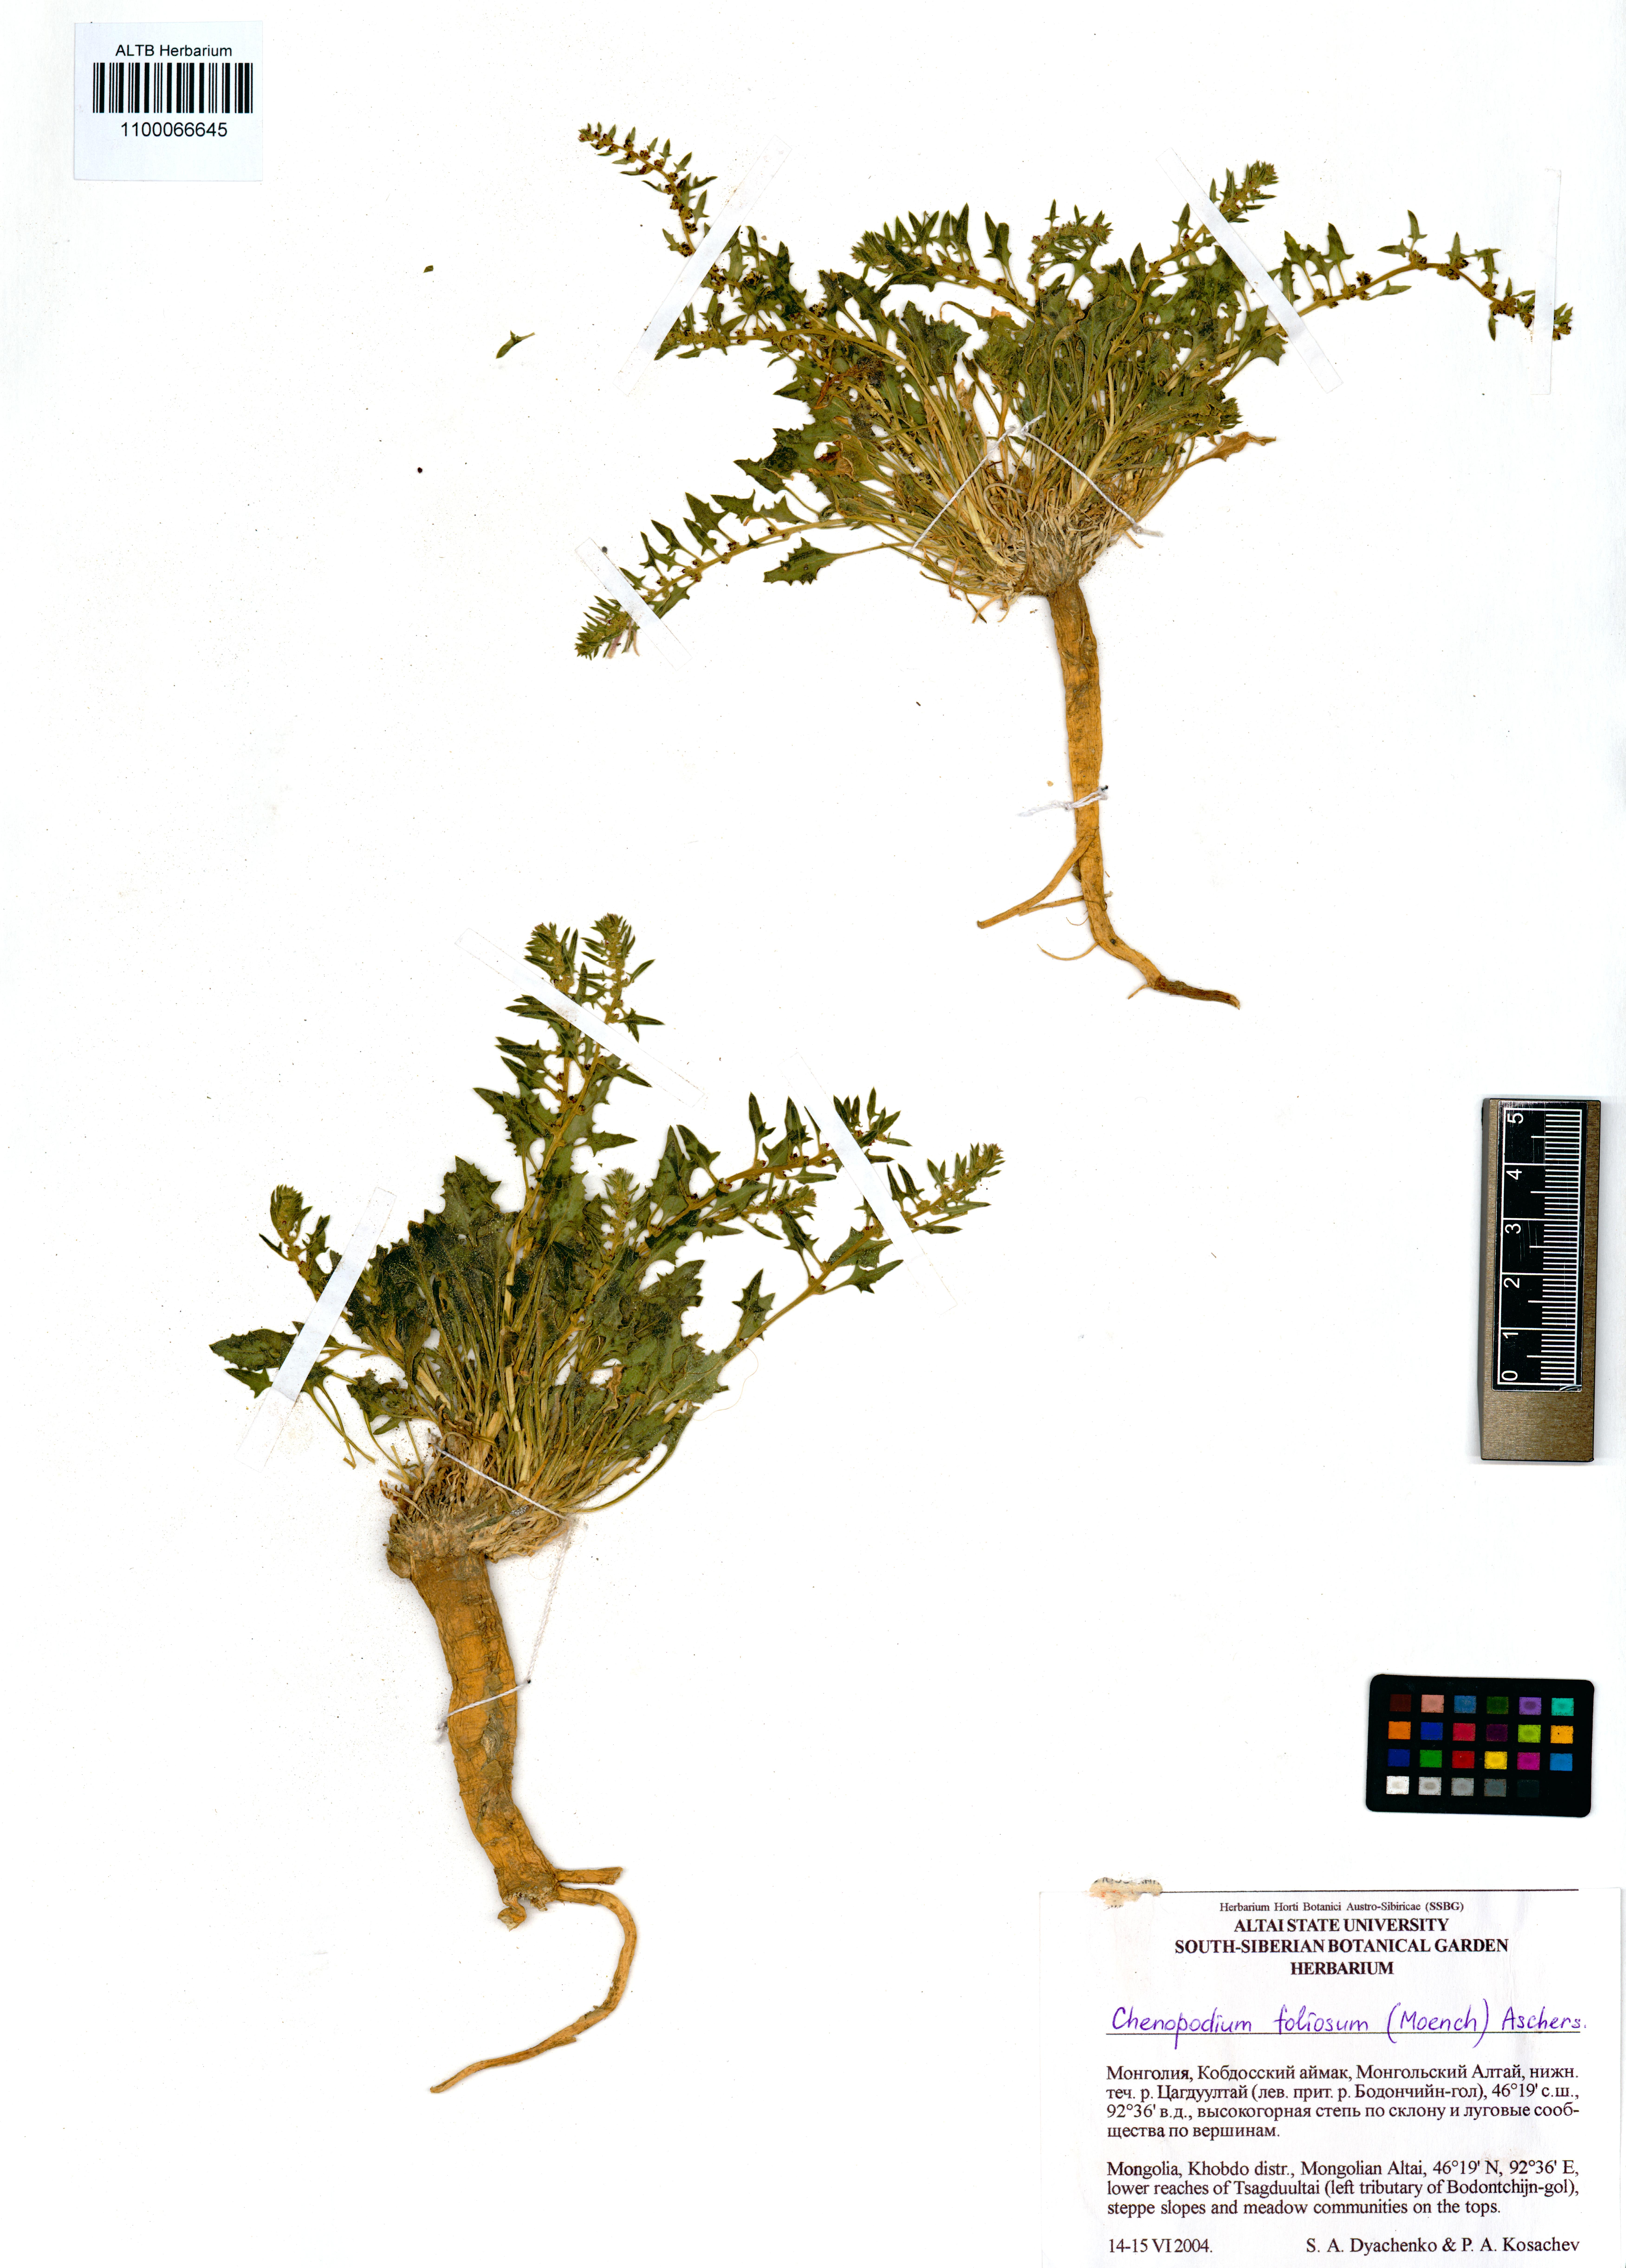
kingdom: Plantae
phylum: Tracheophyta
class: Magnoliopsida
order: Caryophyllales
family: Amaranthaceae
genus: Blitum
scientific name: Blitum virgatum
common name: Strawberry goosefoot
